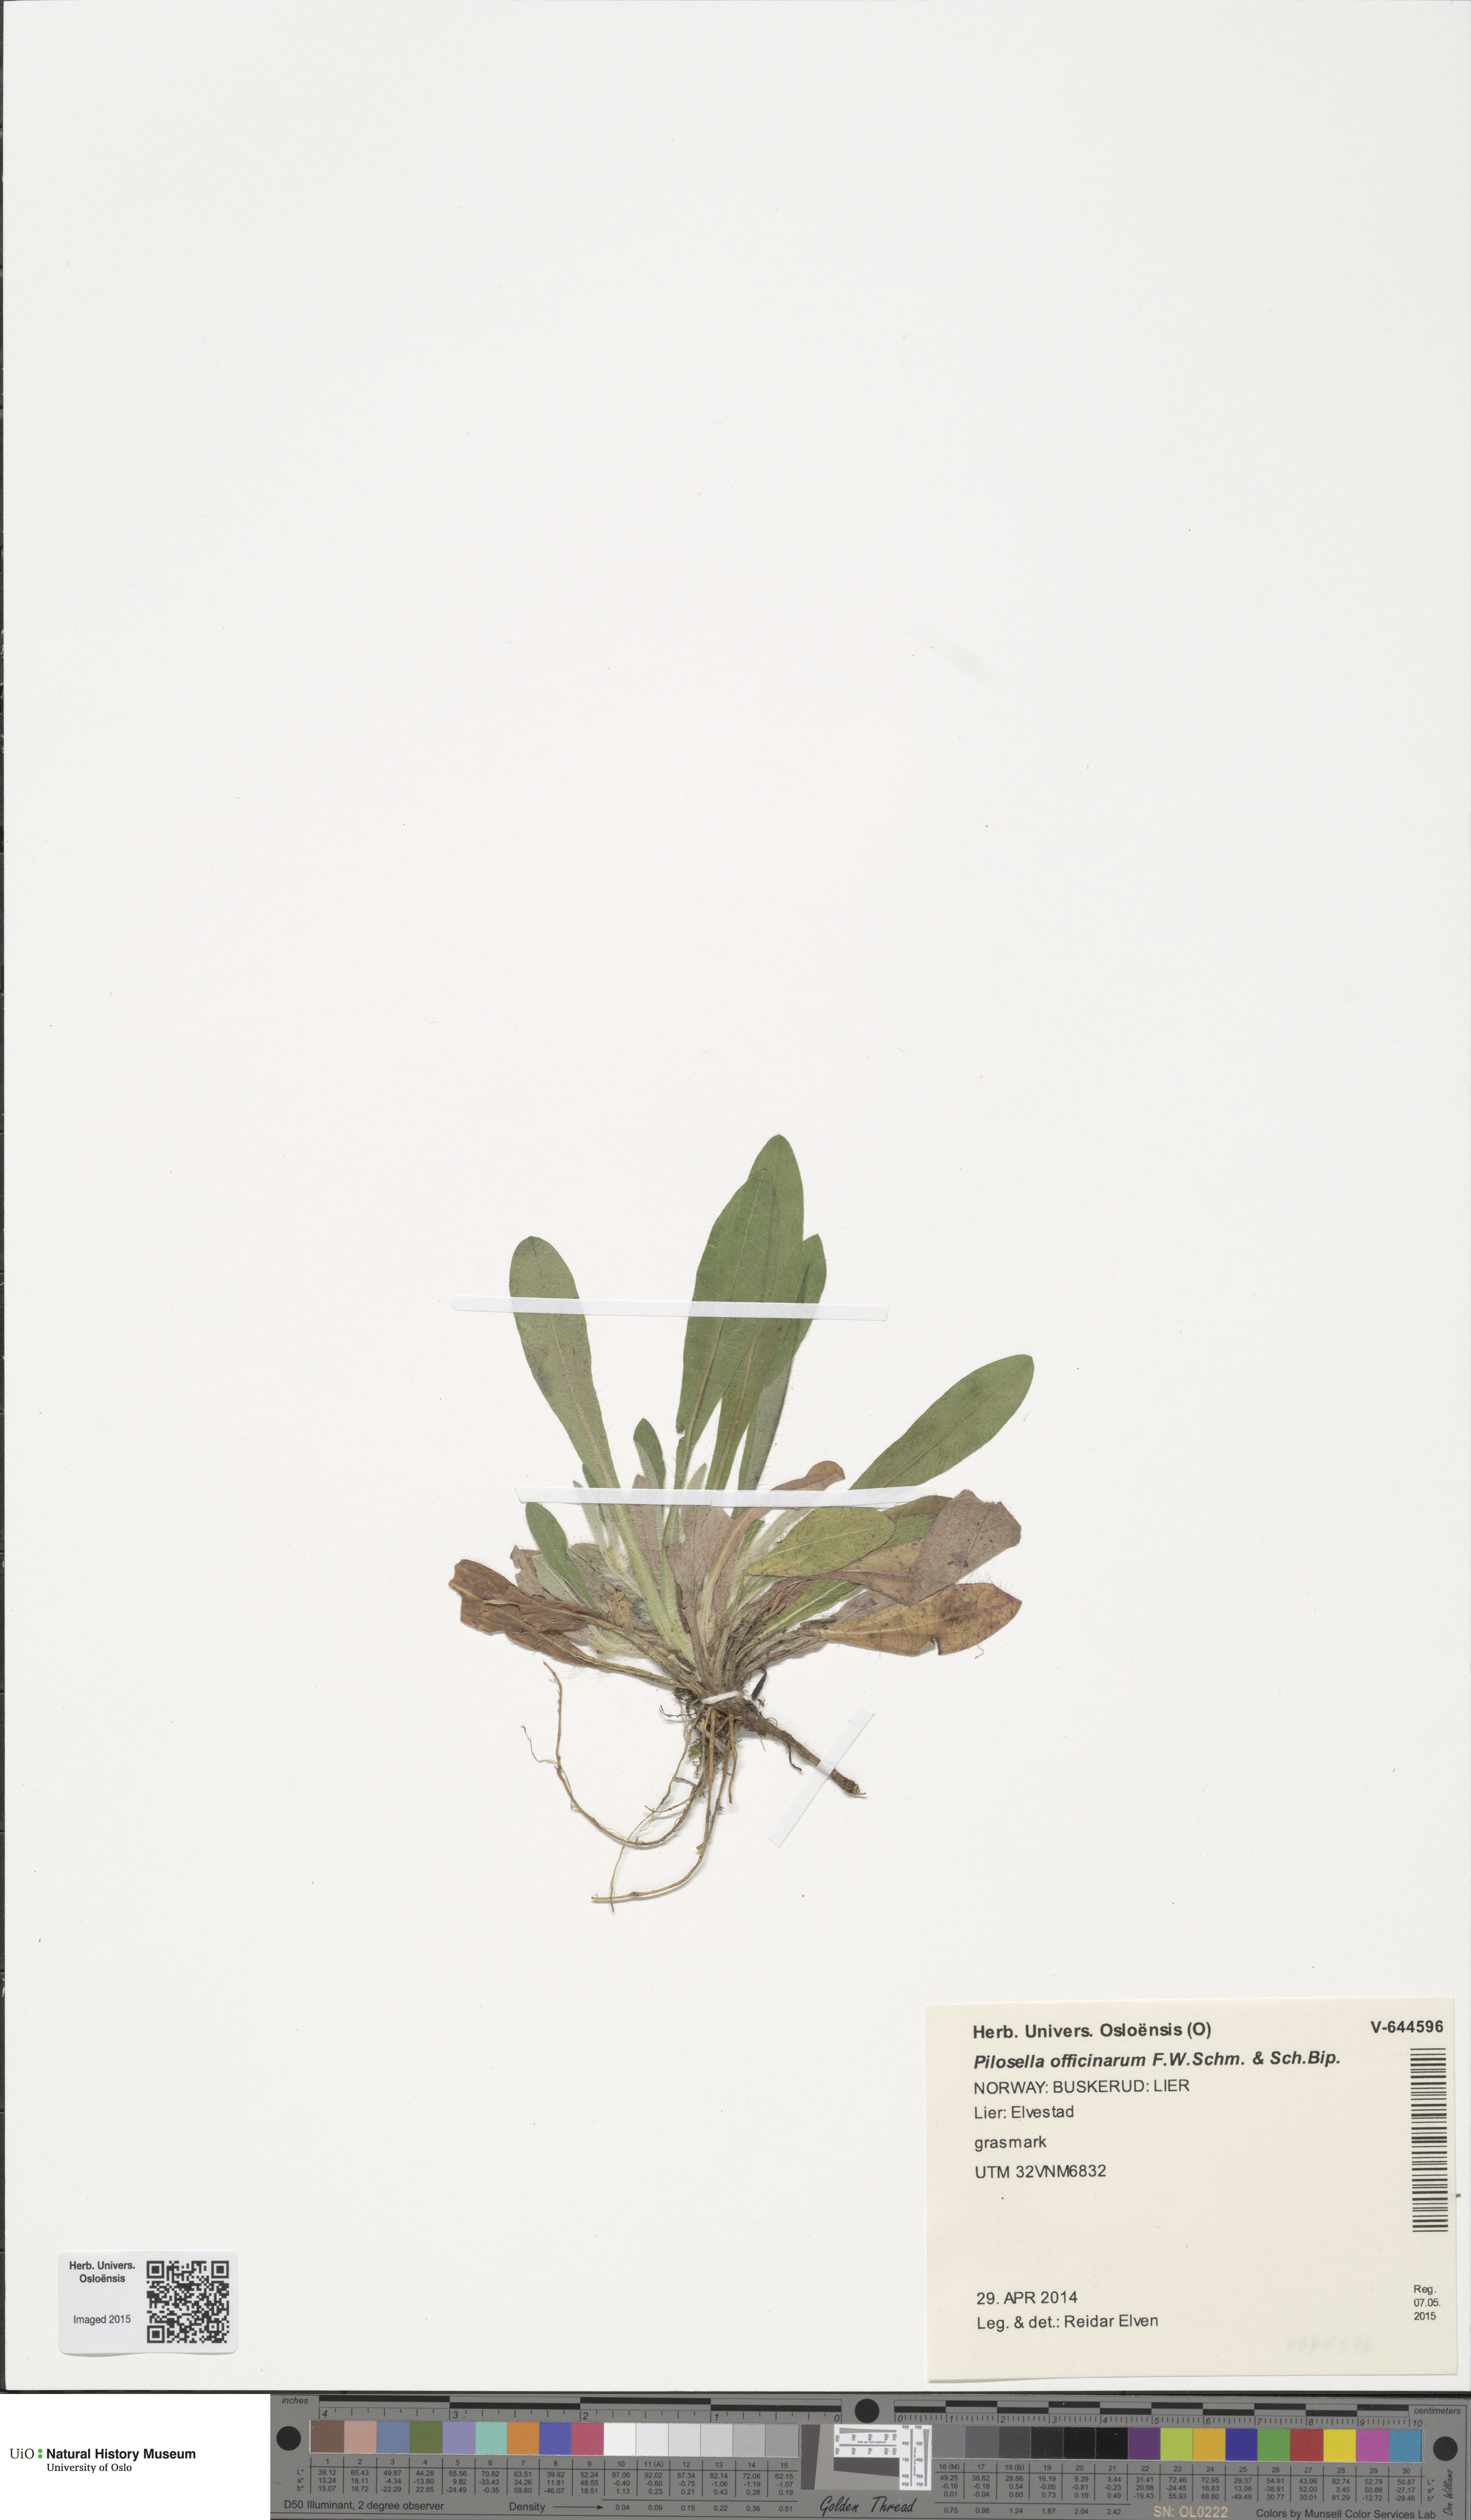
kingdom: Plantae
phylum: Tracheophyta
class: Magnoliopsida
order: Asterales
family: Asteraceae
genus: Pilosella
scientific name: Pilosella officinarum
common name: Mouse-ear hawkweed
